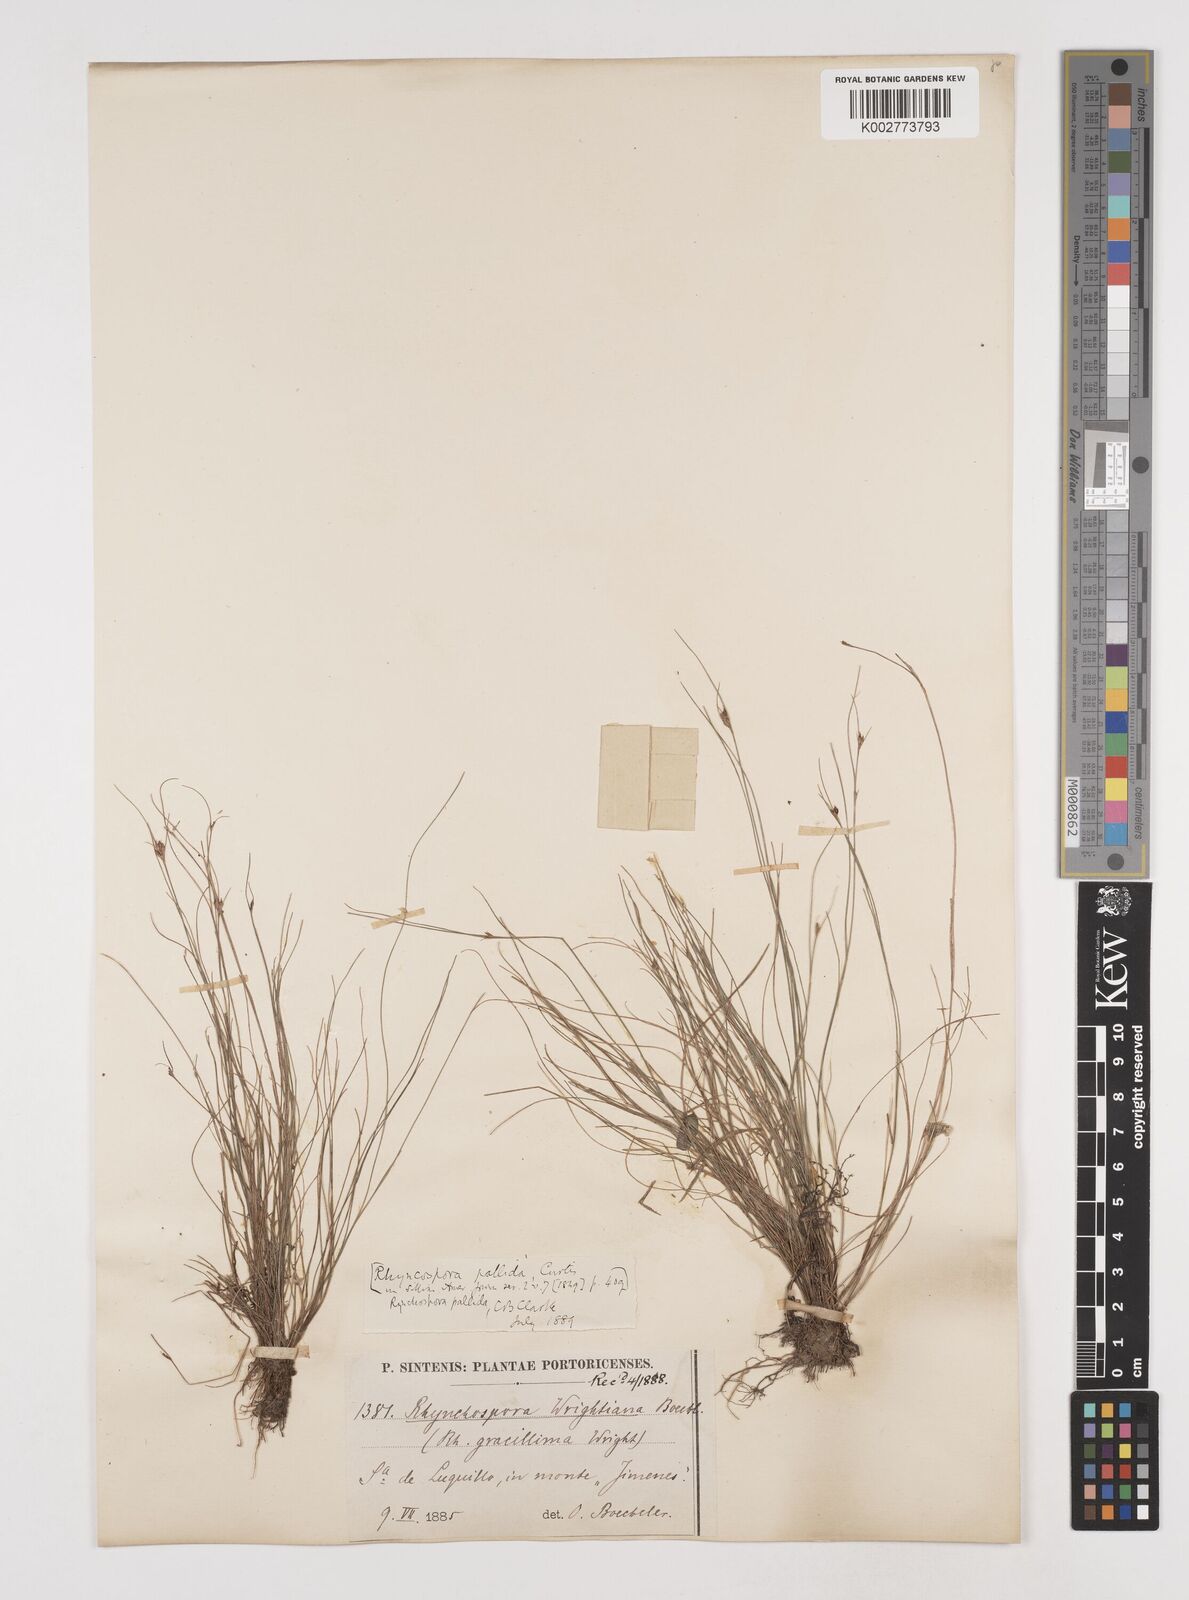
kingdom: Plantae
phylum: Tracheophyta
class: Liliopsida
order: Poales
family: Cyperaceae
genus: Rhynchospora
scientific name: Rhynchospora pallida
